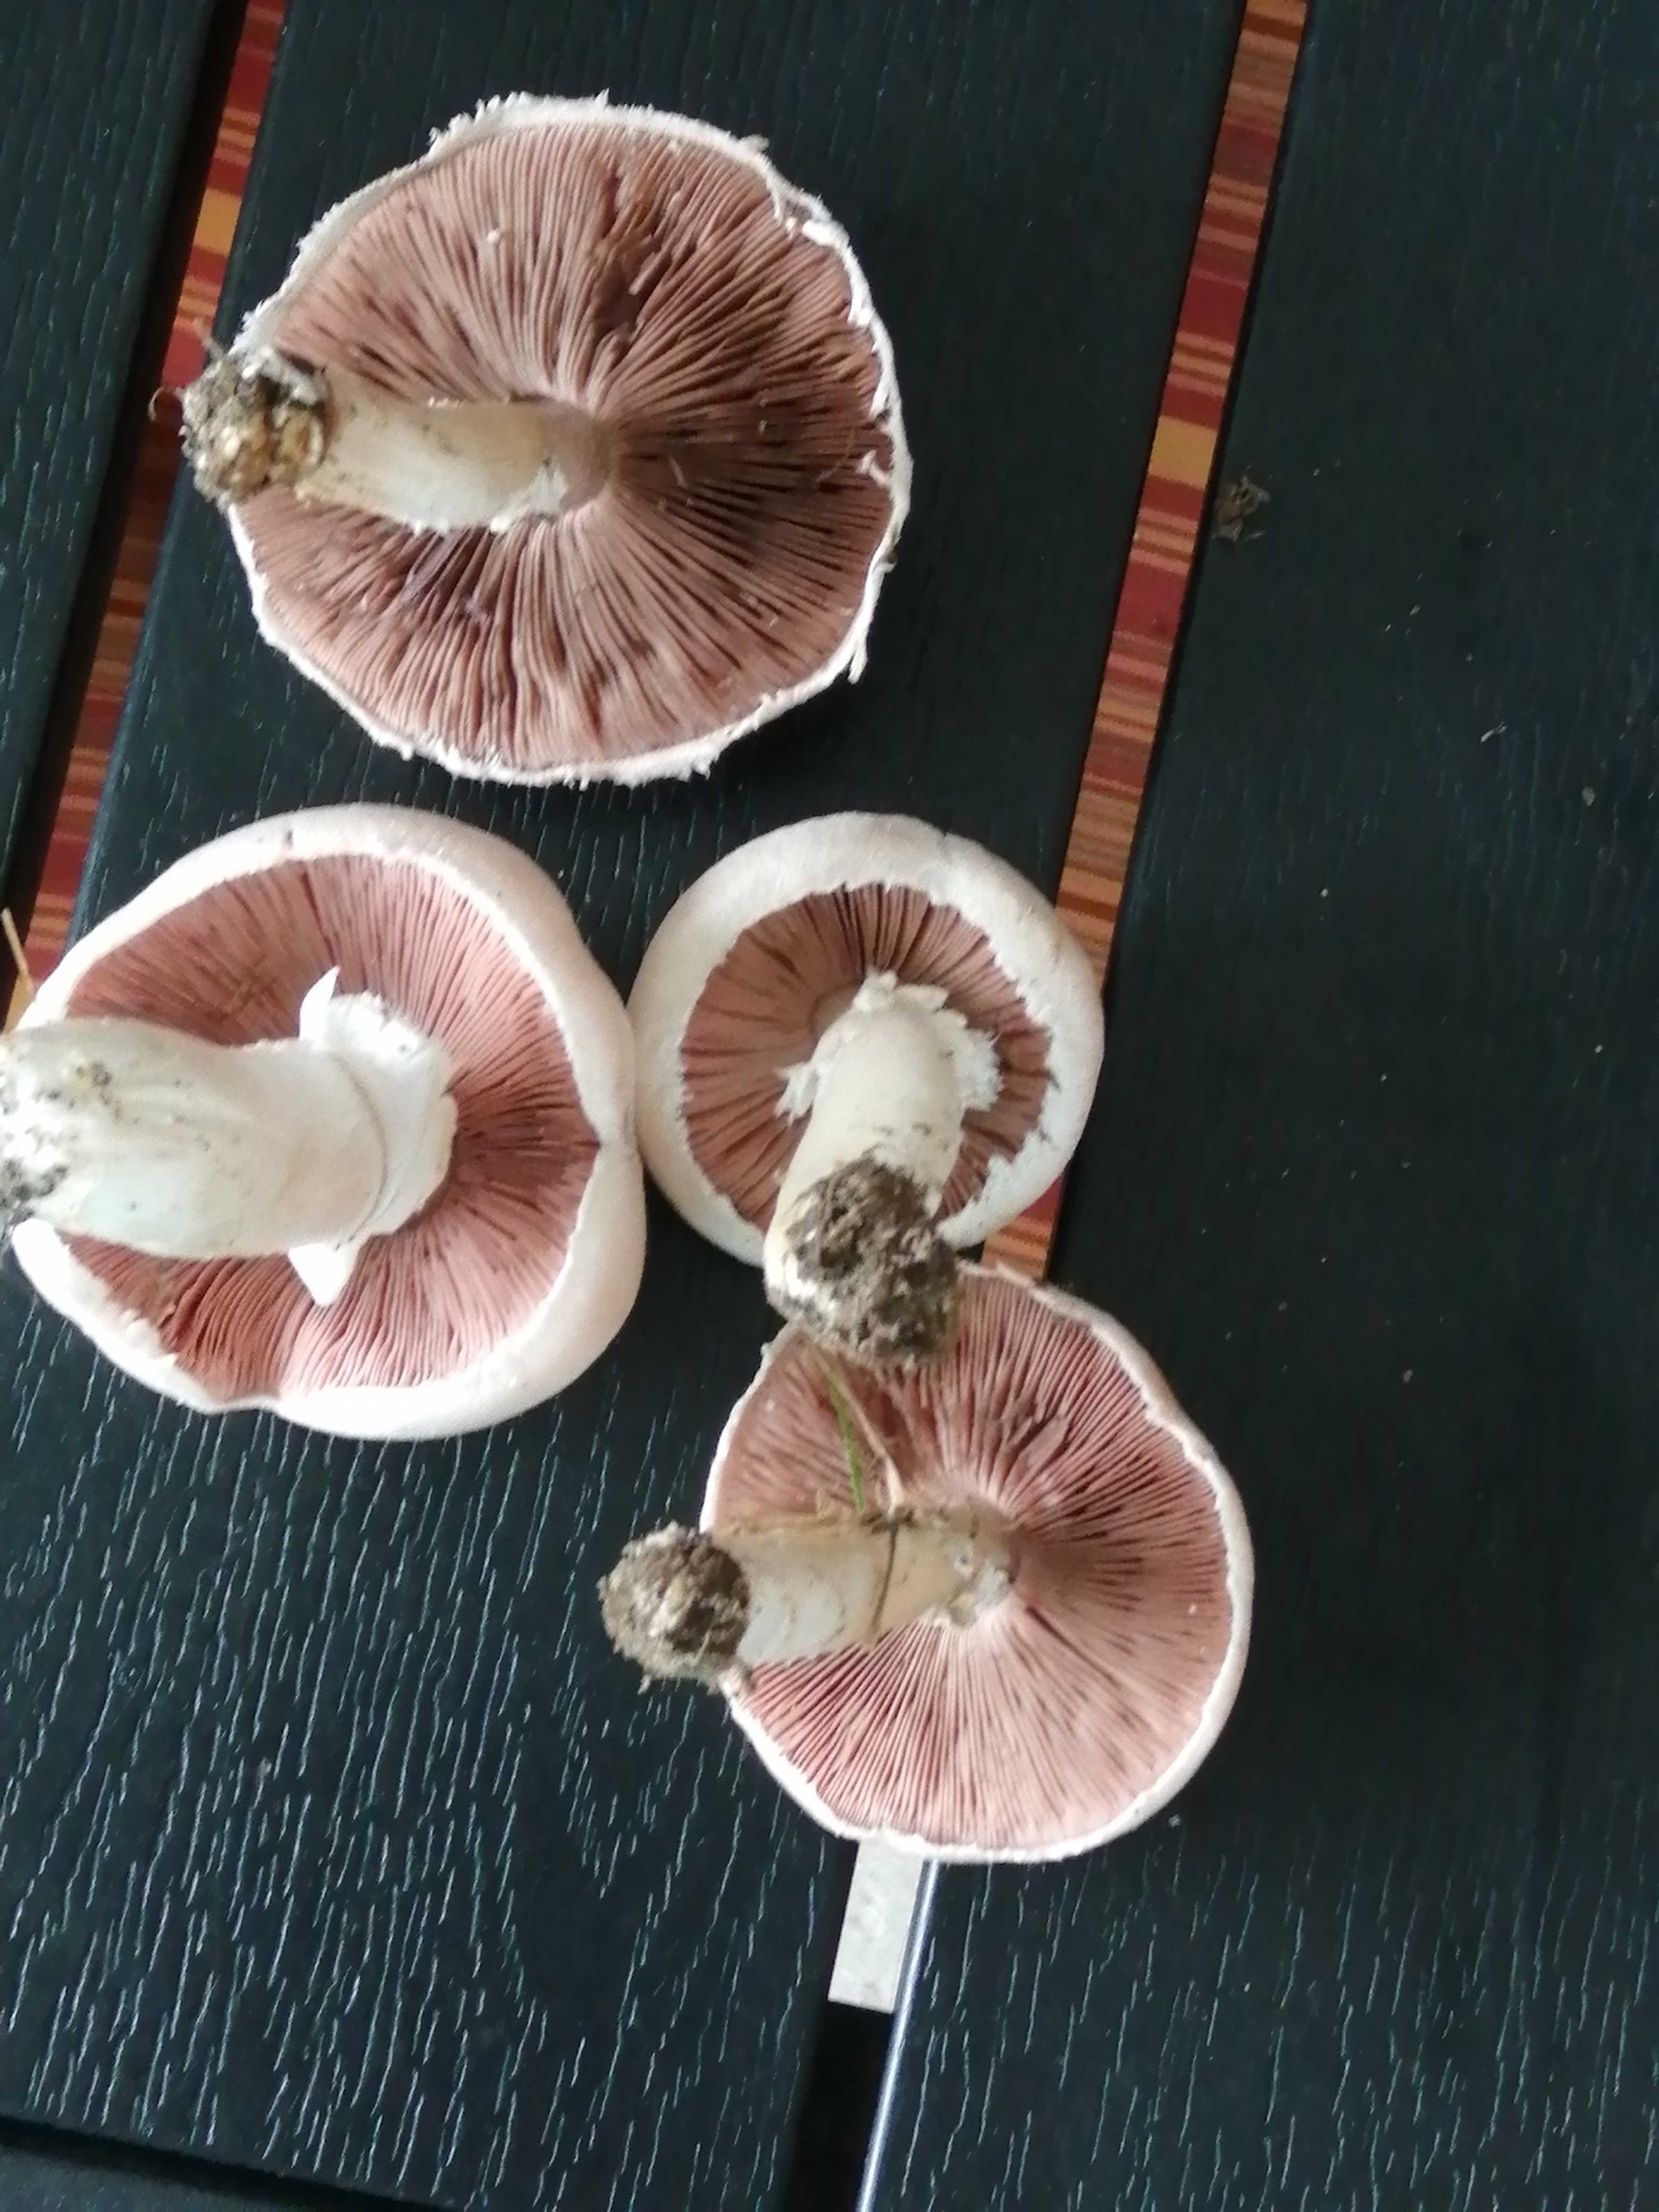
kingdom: Fungi
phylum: Basidiomycota
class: Agaricomycetes
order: Agaricales
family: Agaricaceae
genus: Agaricus
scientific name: Agaricus campestris
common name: mark-champignon
